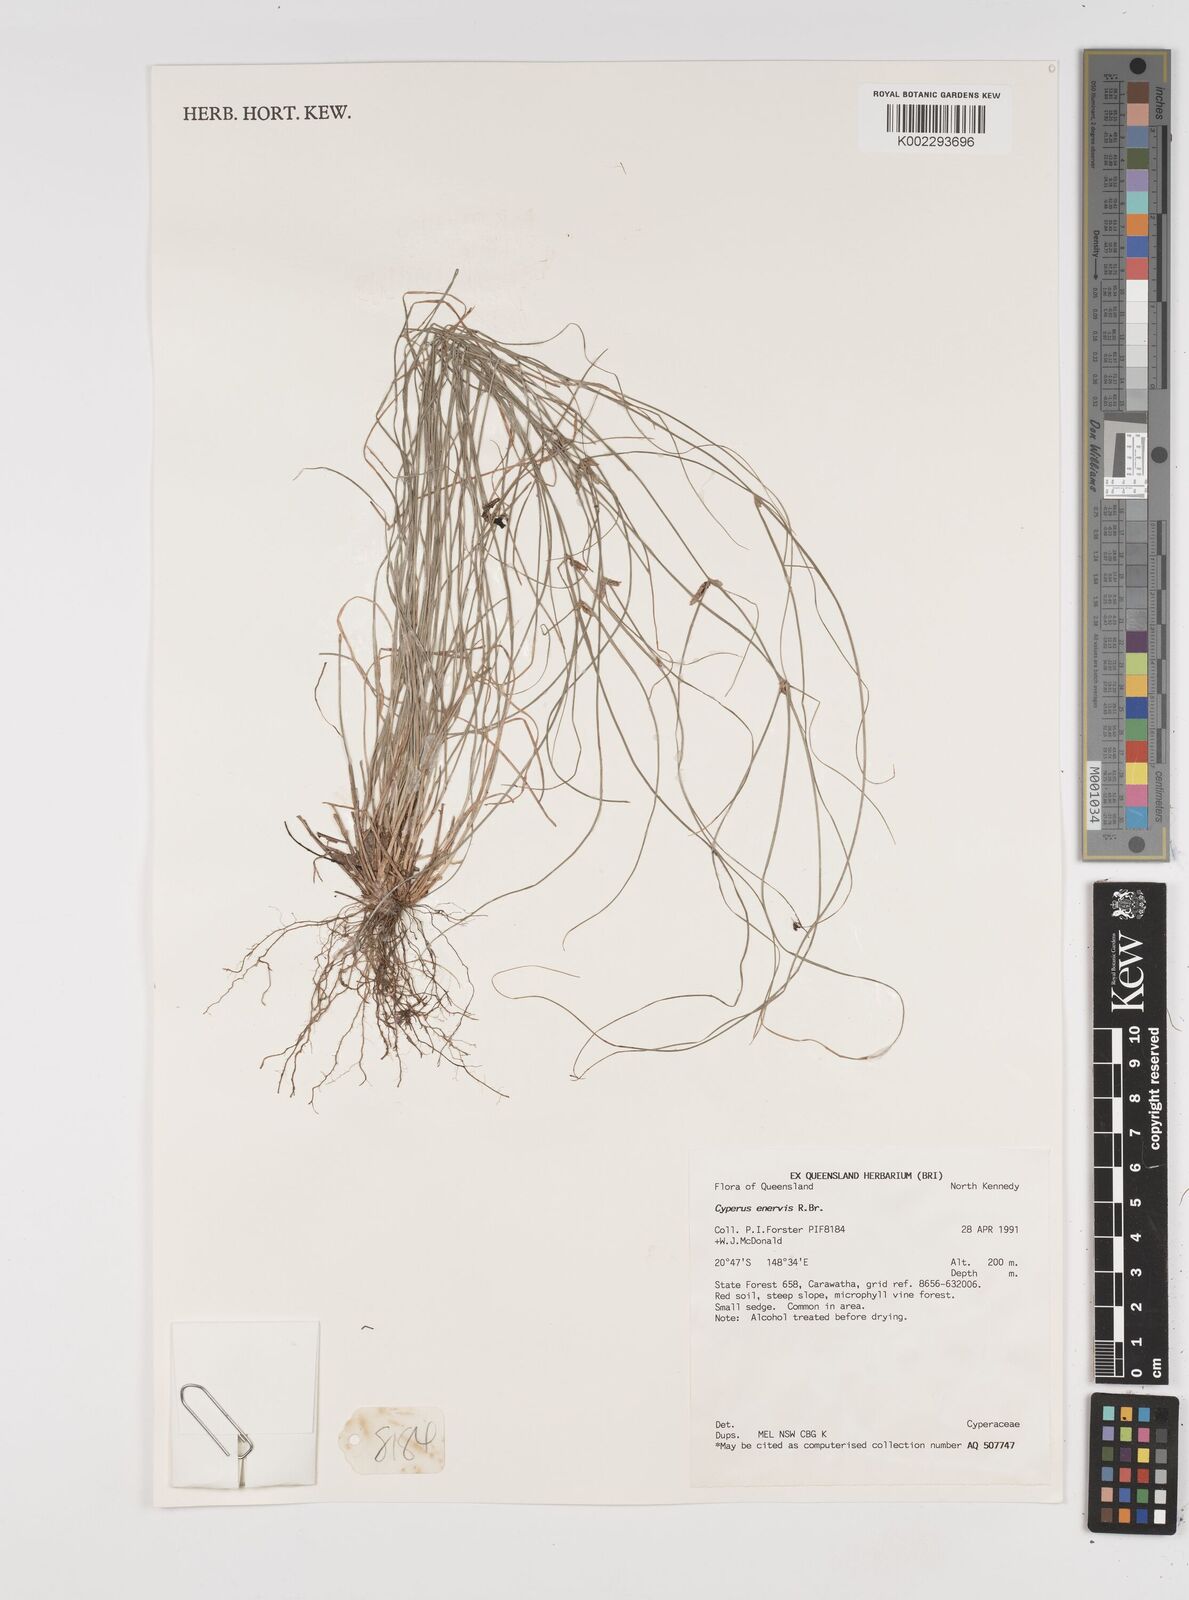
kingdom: Plantae
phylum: Tracheophyta
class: Liliopsida
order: Poales
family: Cyperaceae
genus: Cyperus
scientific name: Cyperus enervis
